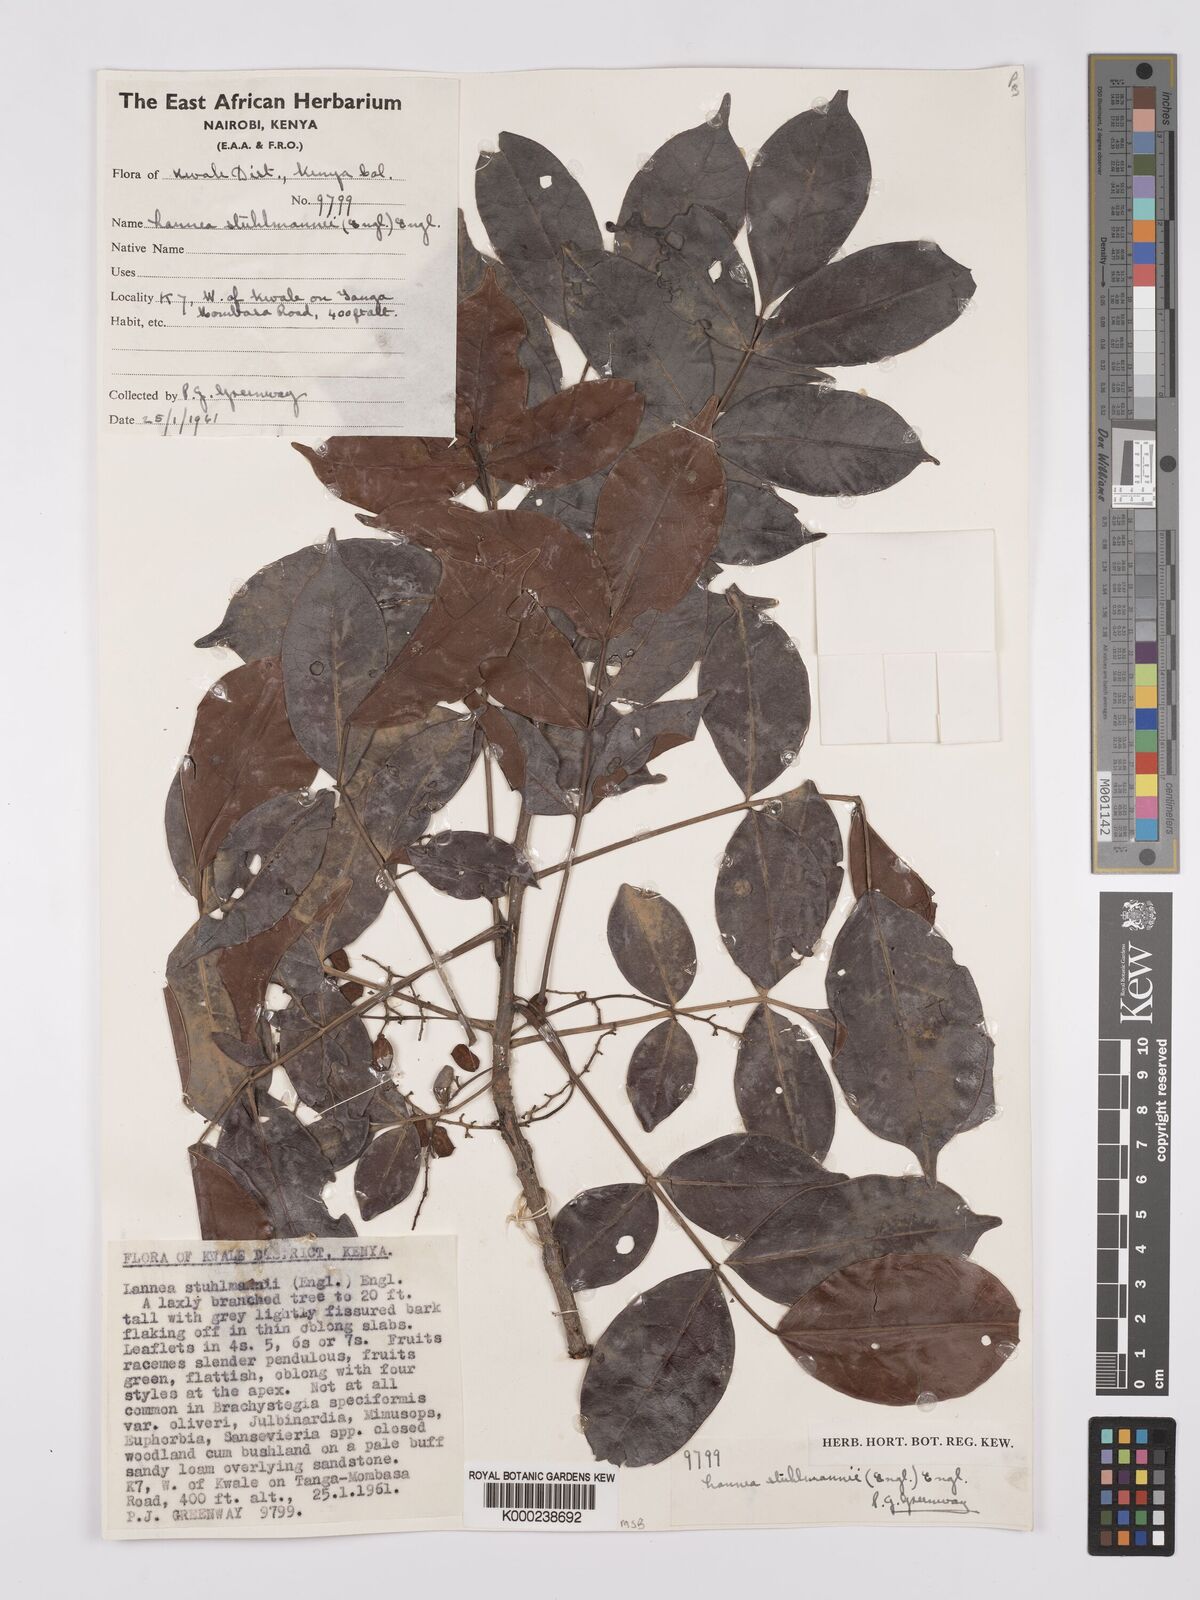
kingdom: Plantae
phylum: Tracheophyta
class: Magnoliopsida
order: Sapindales
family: Anacardiaceae
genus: Lannea
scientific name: Lannea schweinfurthii
